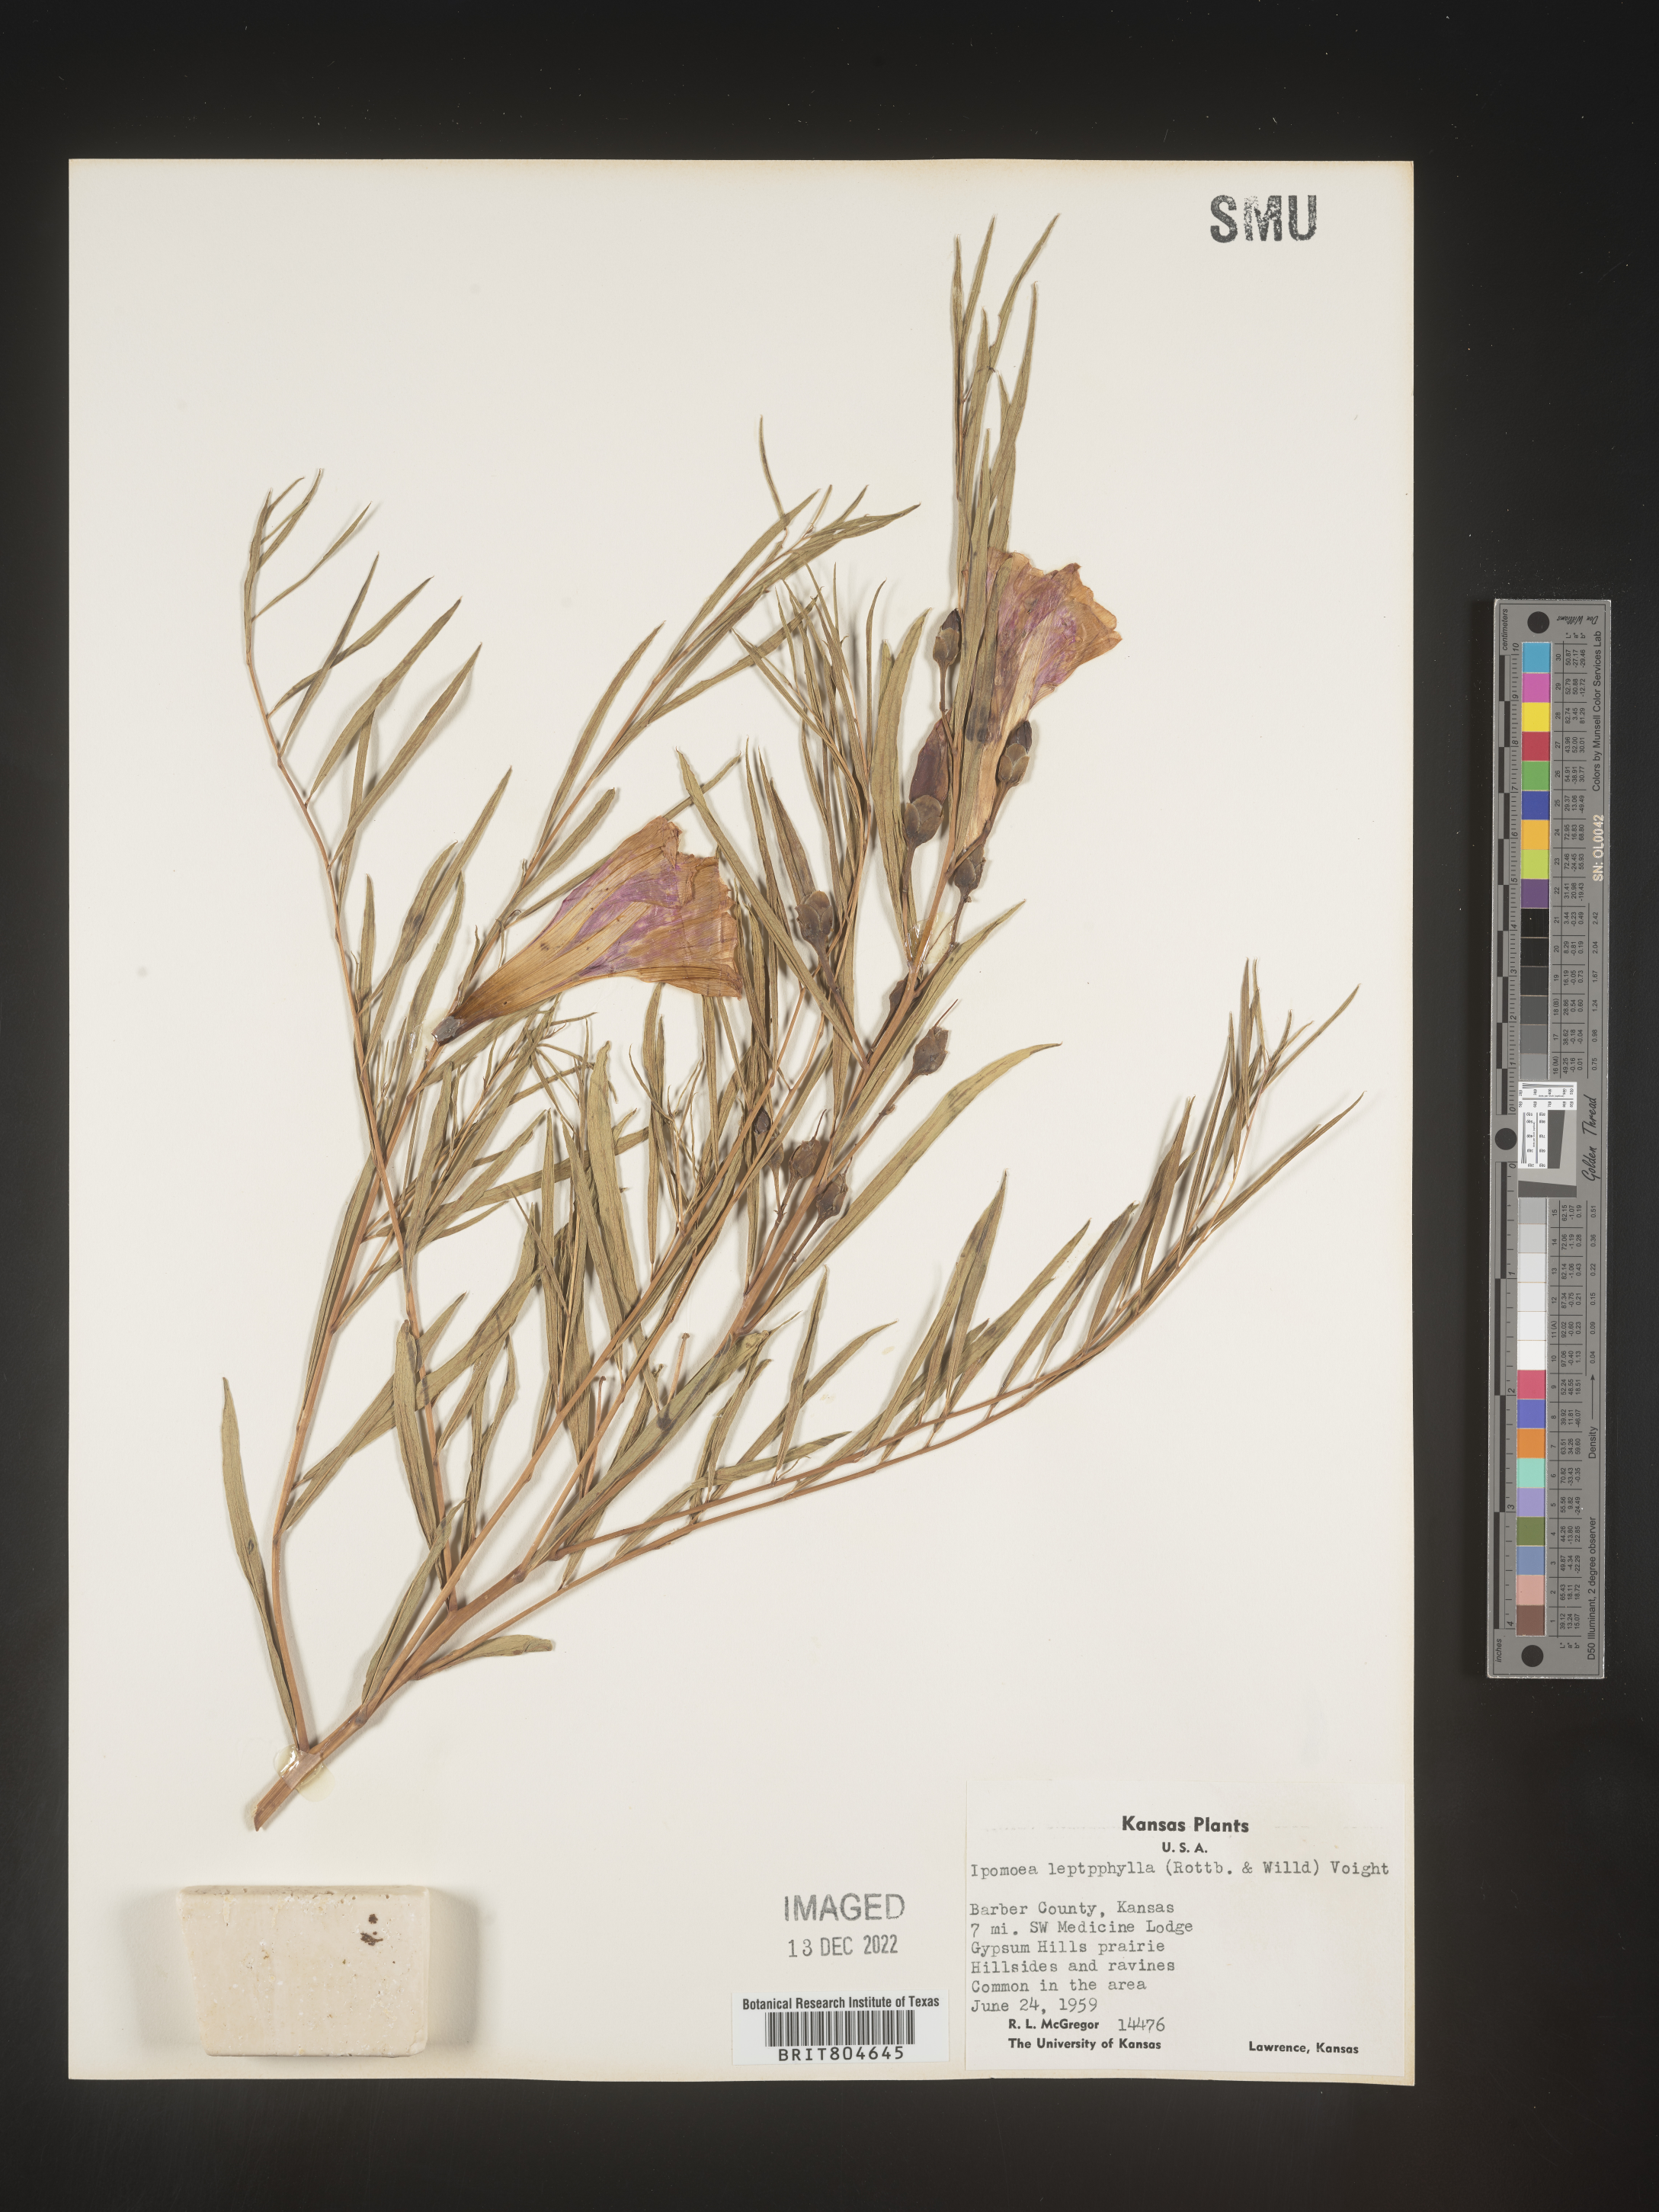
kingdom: Plantae
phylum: Tracheophyta
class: Magnoliopsida
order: Solanales
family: Convolvulaceae
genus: Ipomoea
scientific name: Ipomoea leptophylla
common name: Bush moonflower
